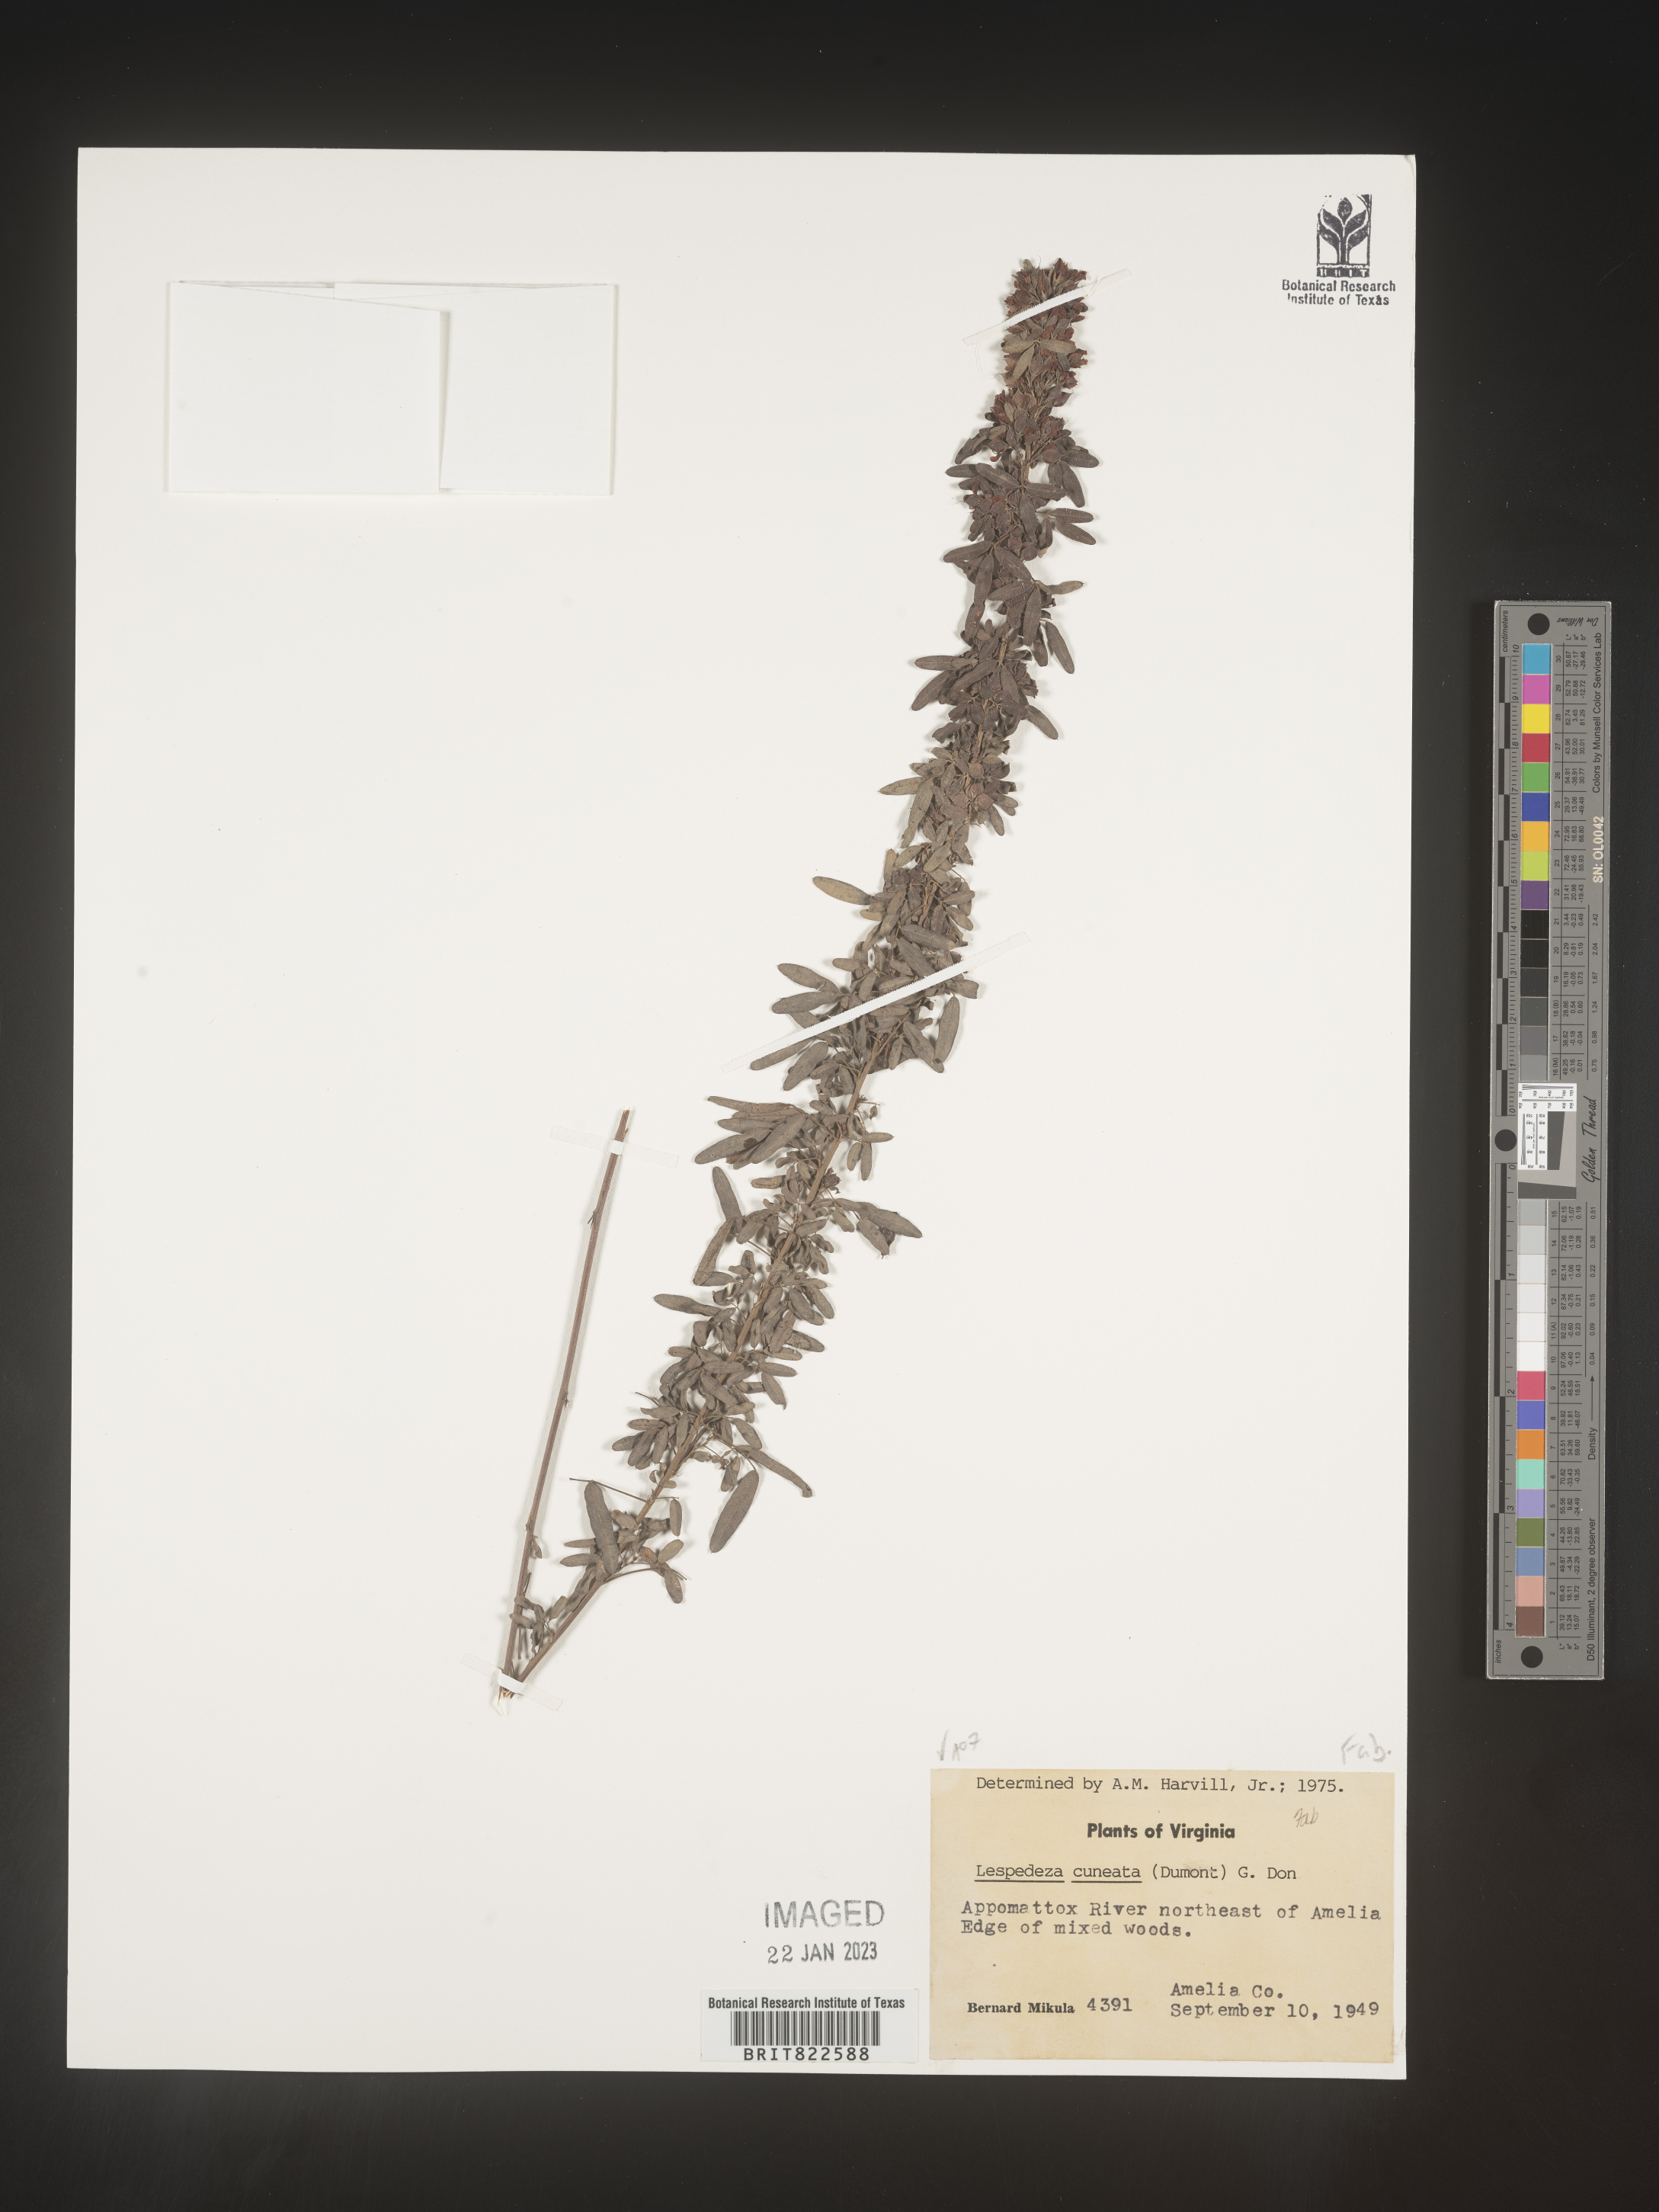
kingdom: Plantae
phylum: Tracheophyta
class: Magnoliopsida
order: Fabales
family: Fabaceae
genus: Lespedeza
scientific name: Lespedeza cuneata
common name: Chinese bush-clover
